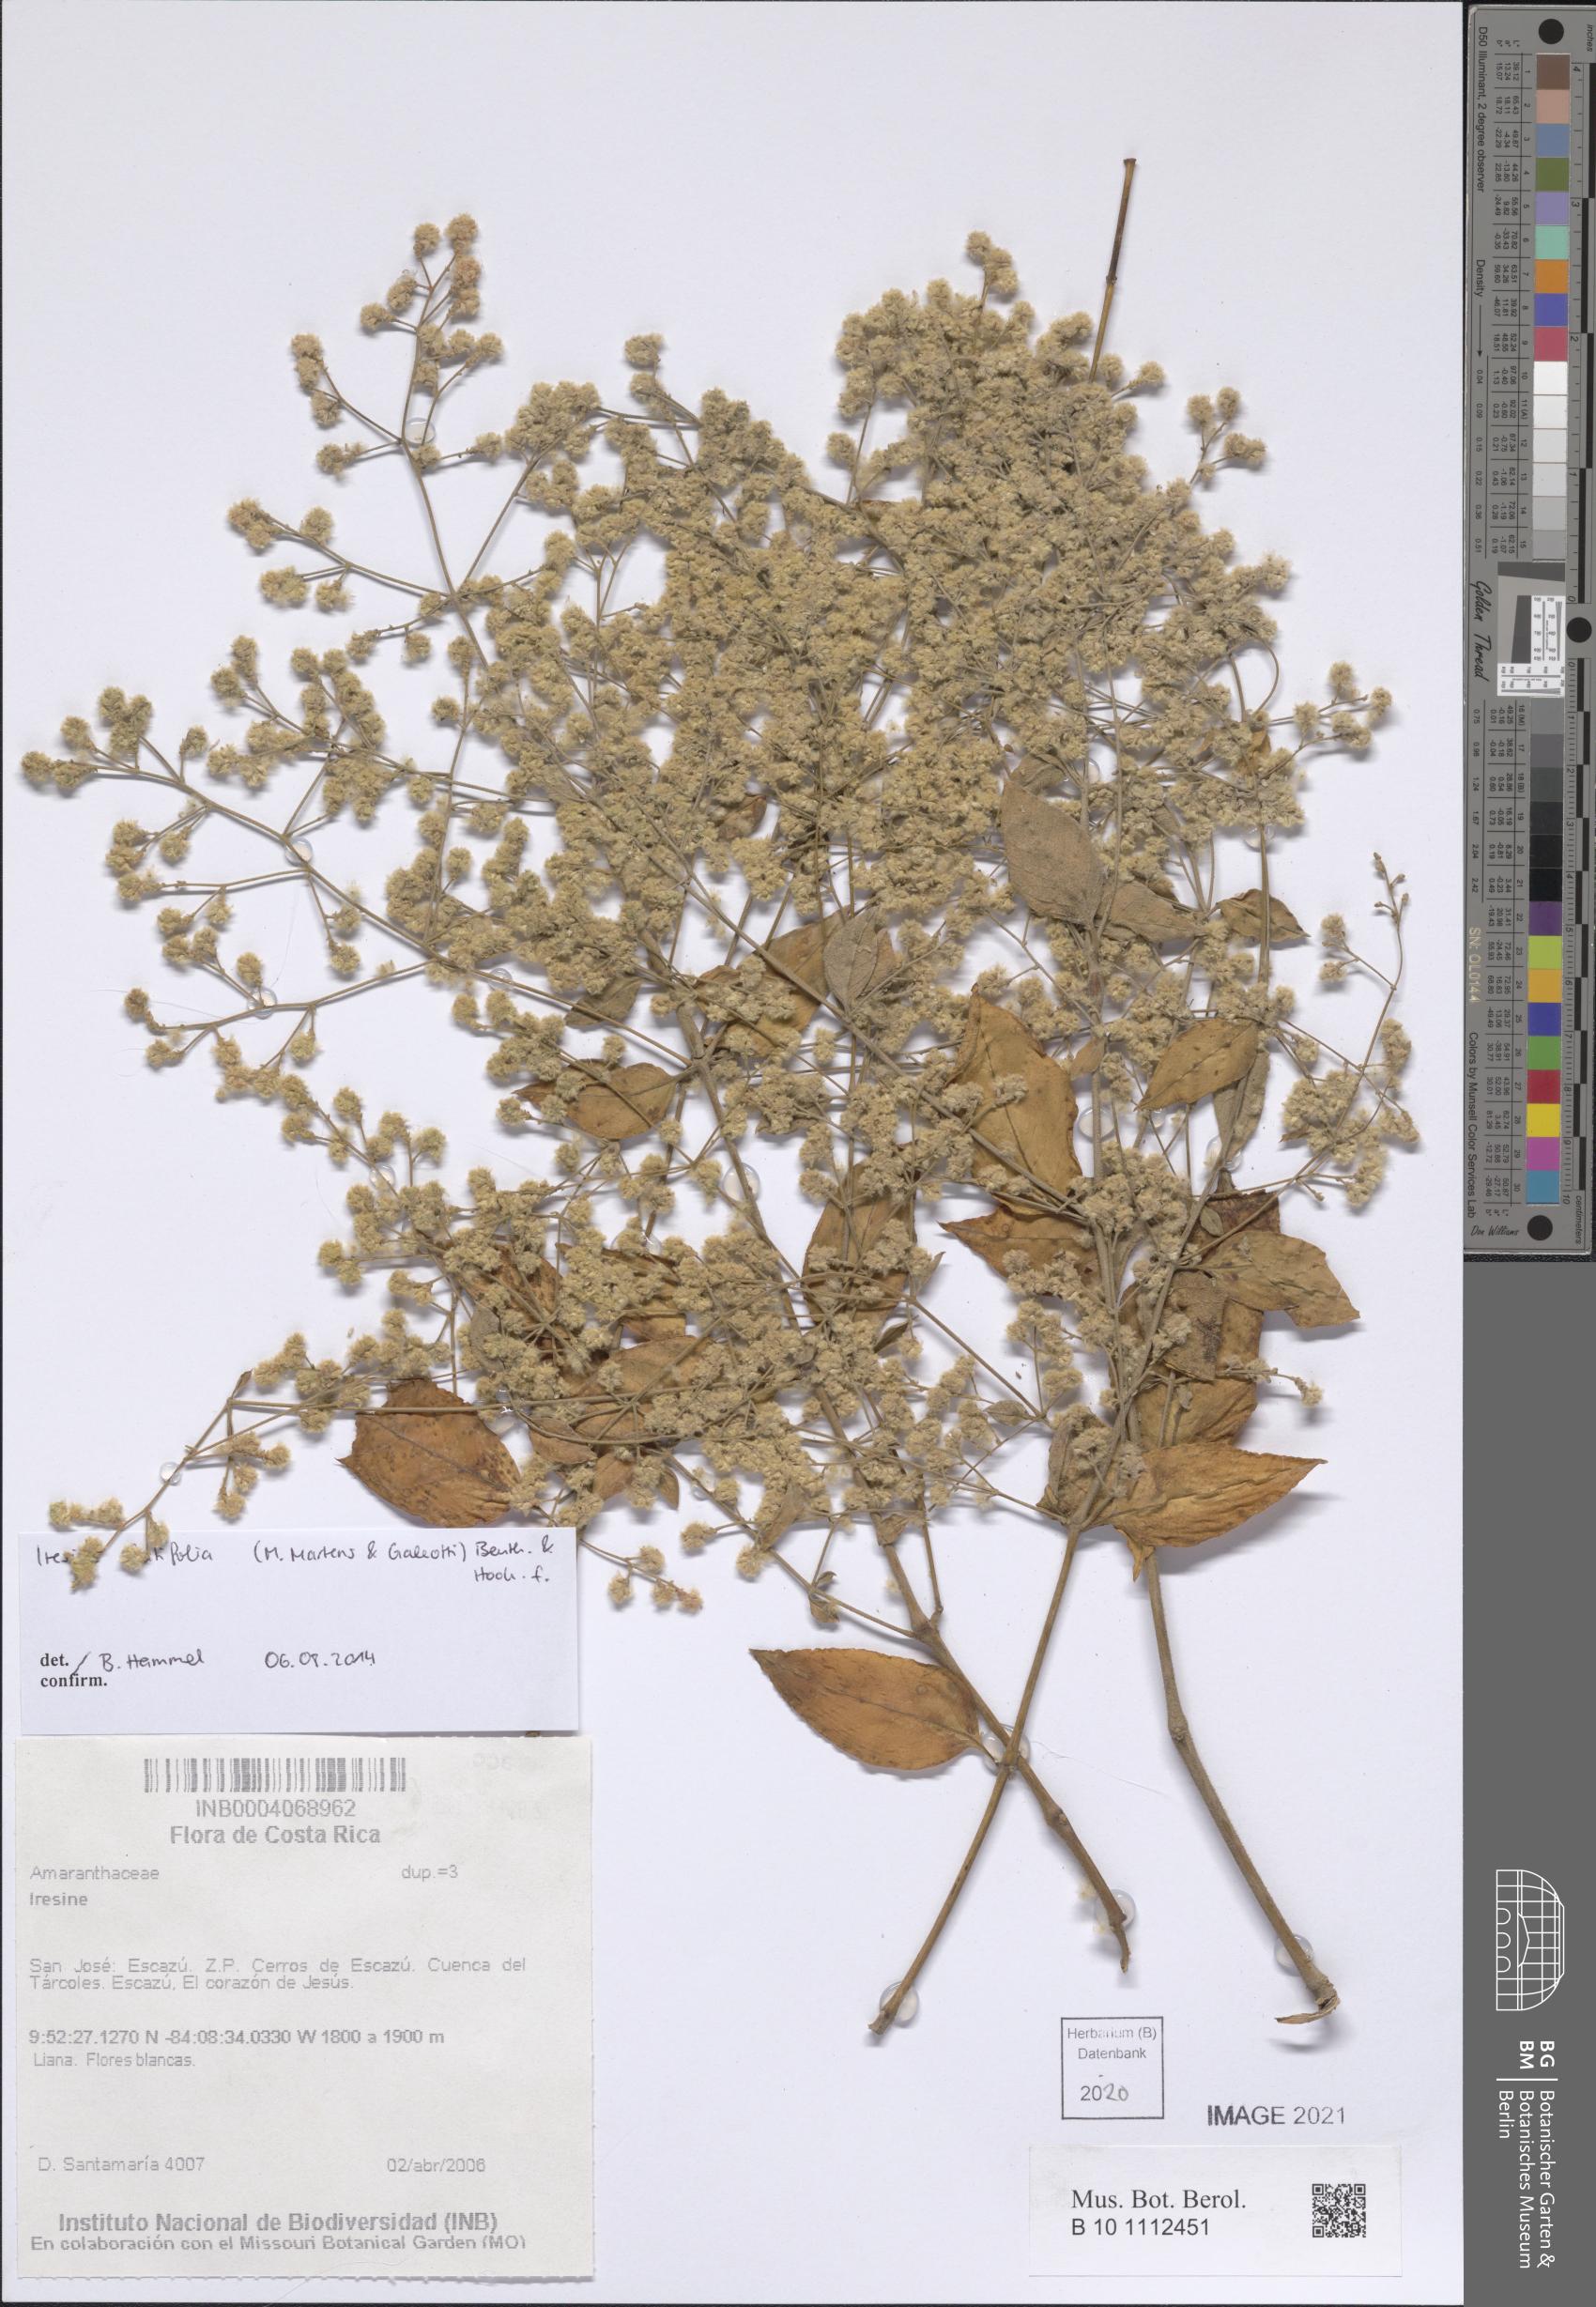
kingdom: Plantae
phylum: Tracheophyta
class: Magnoliopsida
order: Caryophyllales
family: Amaranthaceae
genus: Iresine
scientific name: Iresine latifolia
